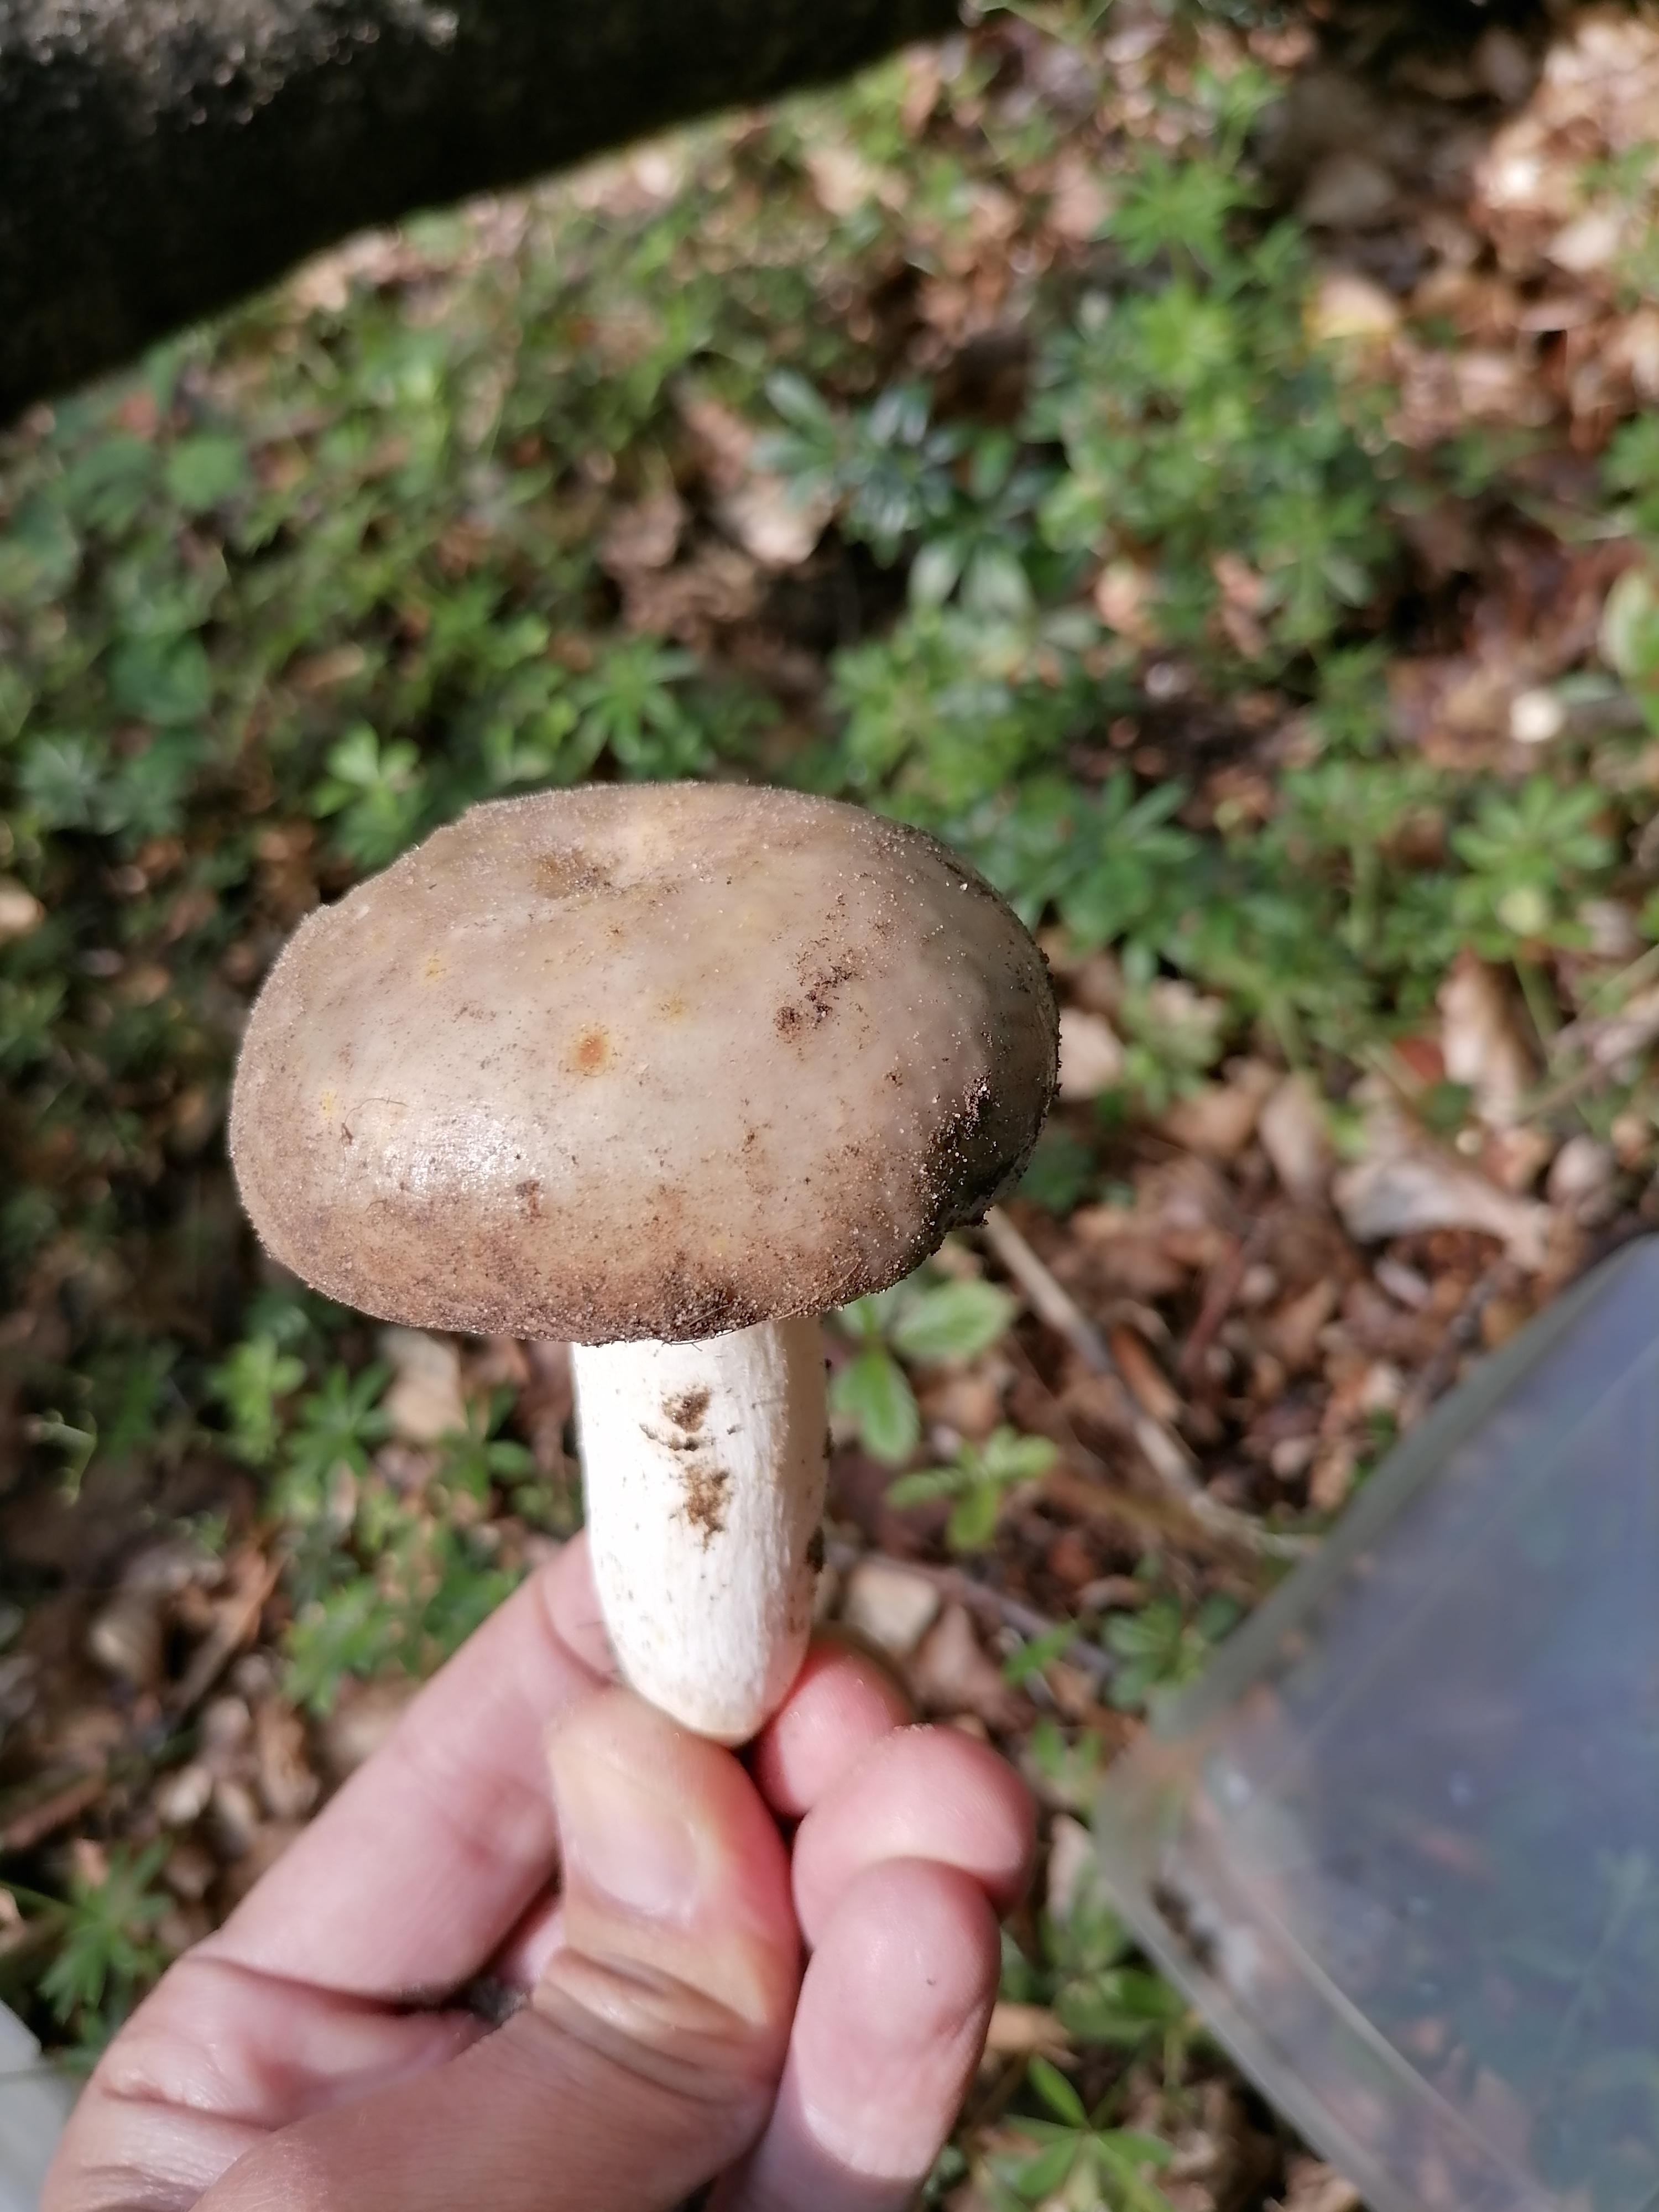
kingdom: Fungi
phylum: Basidiomycota
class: Agaricomycetes
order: Russulales
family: Russulaceae
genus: Russula
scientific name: Russula
